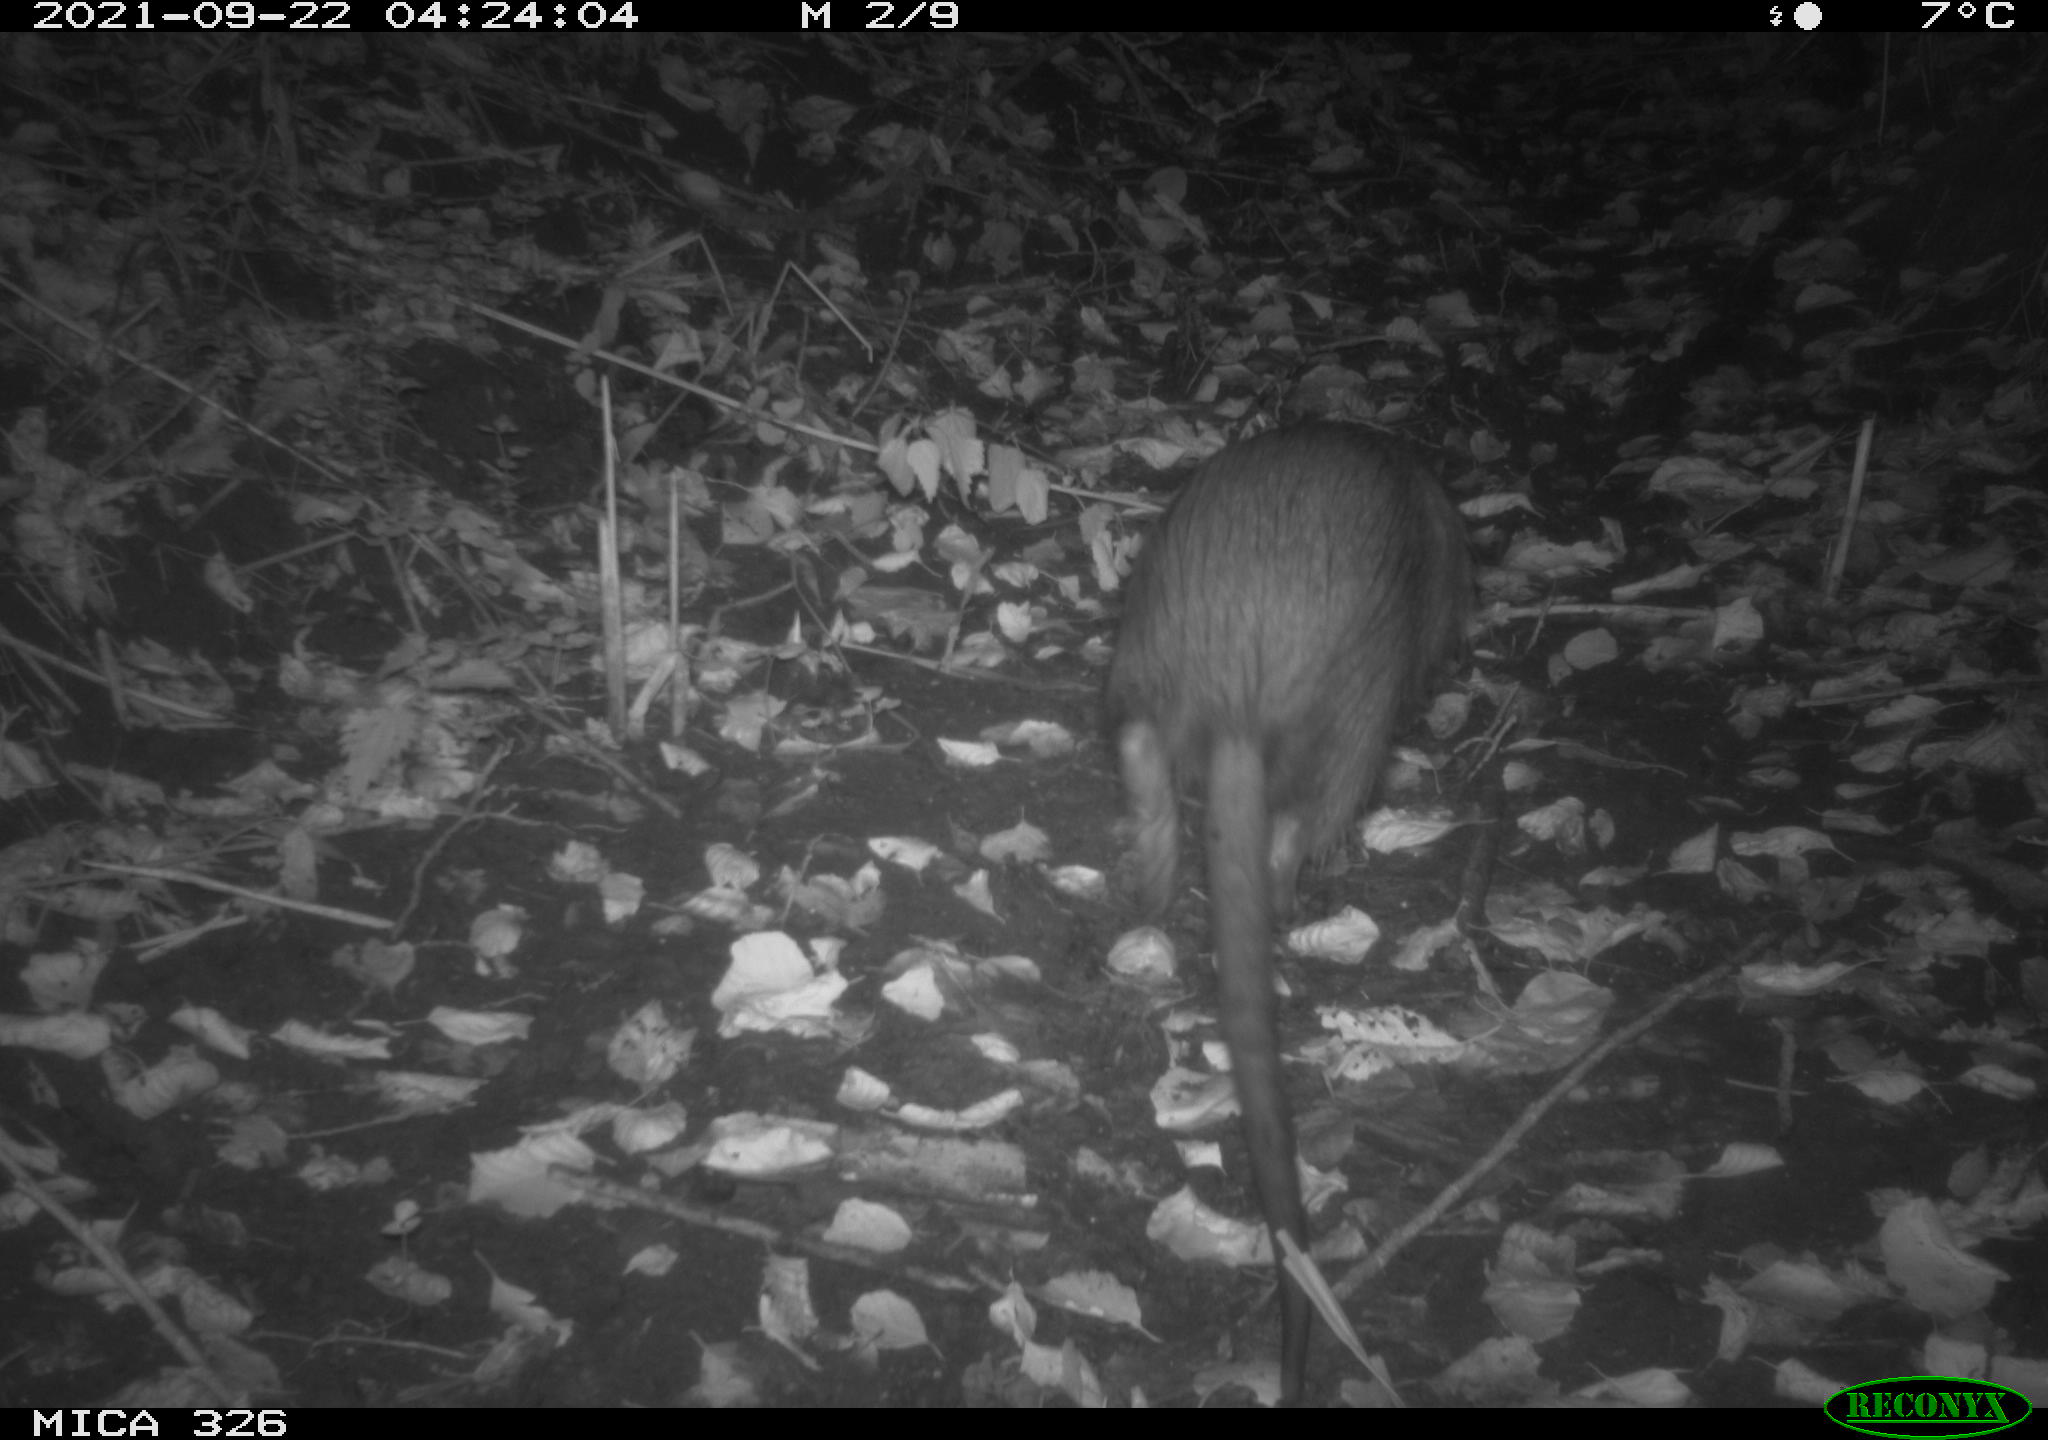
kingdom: Animalia
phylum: Chordata
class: Mammalia
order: Rodentia
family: Myocastoridae
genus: Myocastor
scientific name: Myocastor coypus
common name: Coypu
